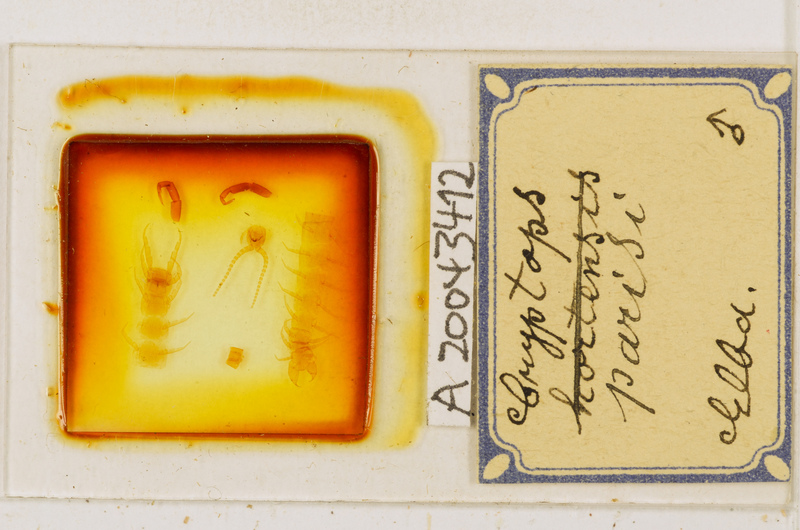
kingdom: Animalia
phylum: Arthropoda
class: Chilopoda
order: Scolopendromorpha
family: Cryptopidae
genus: Cryptops
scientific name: Cryptops parisi
